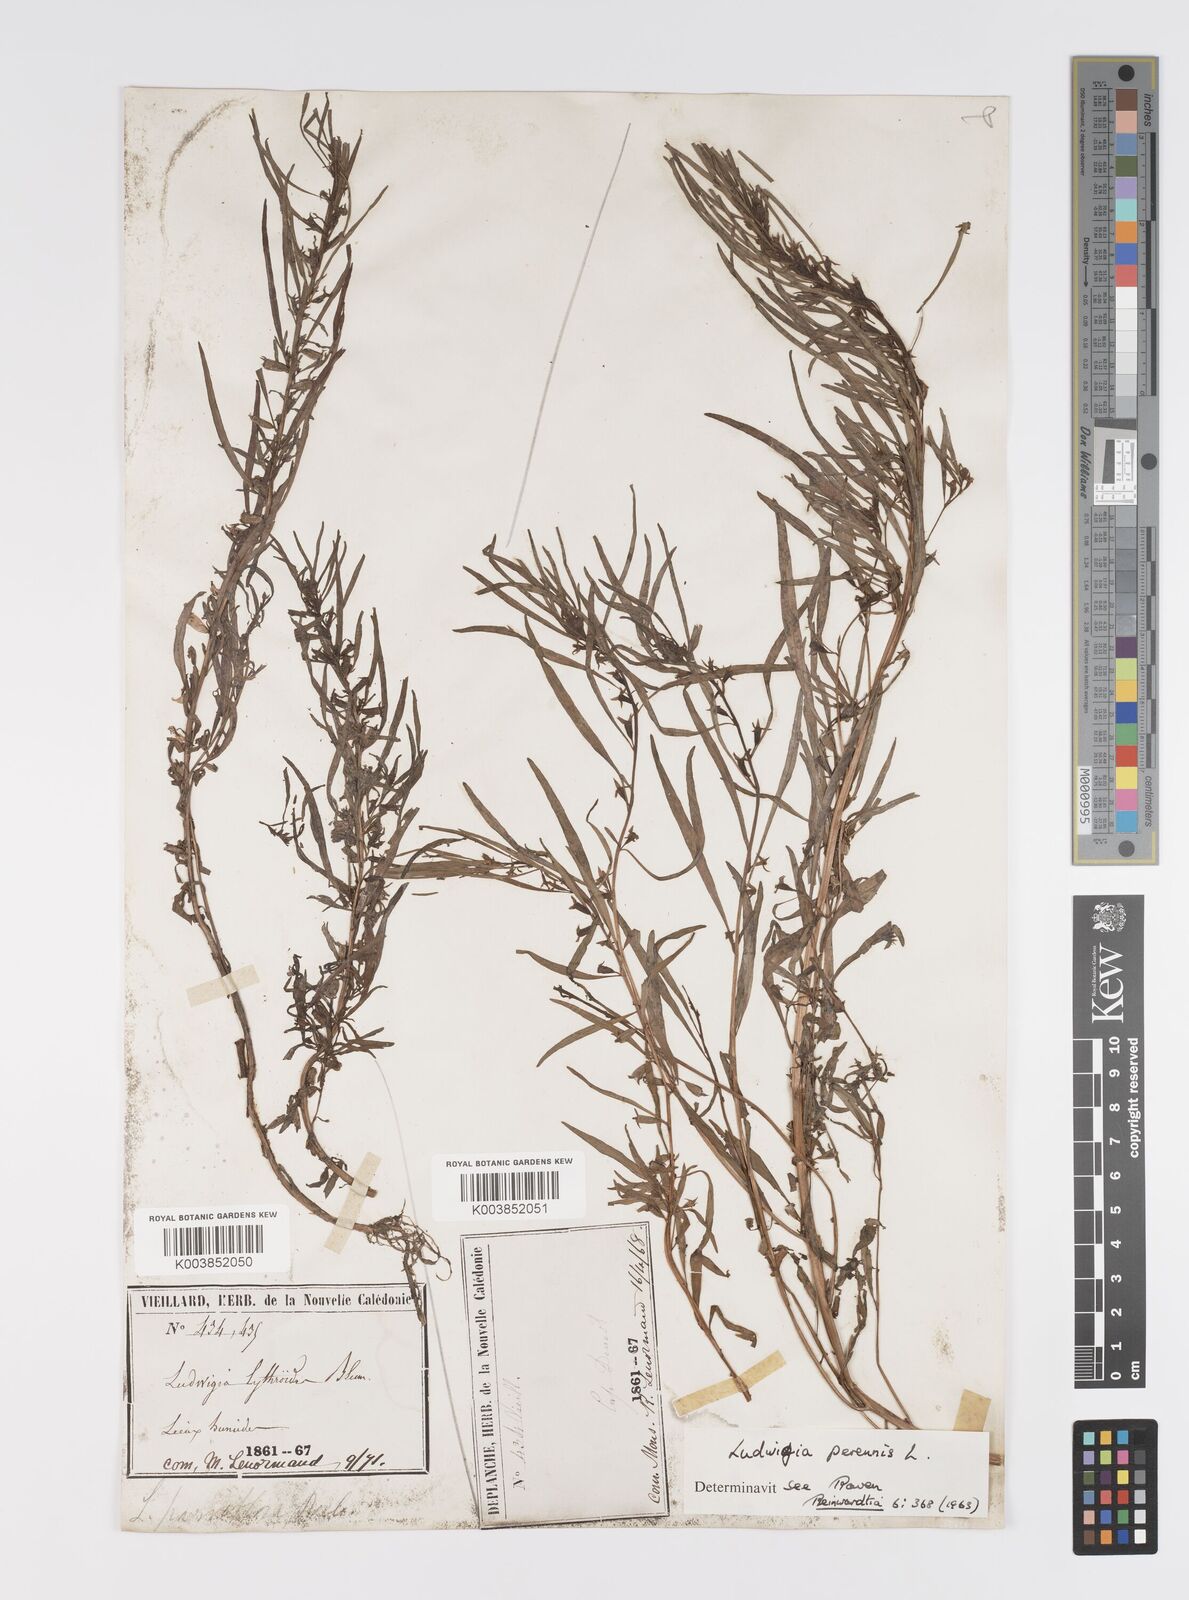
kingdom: Plantae
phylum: Tracheophyta
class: Magnoliopsida
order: Myrtales
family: Onagraceae
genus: Ludwigia
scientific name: Ludwigia perennis
